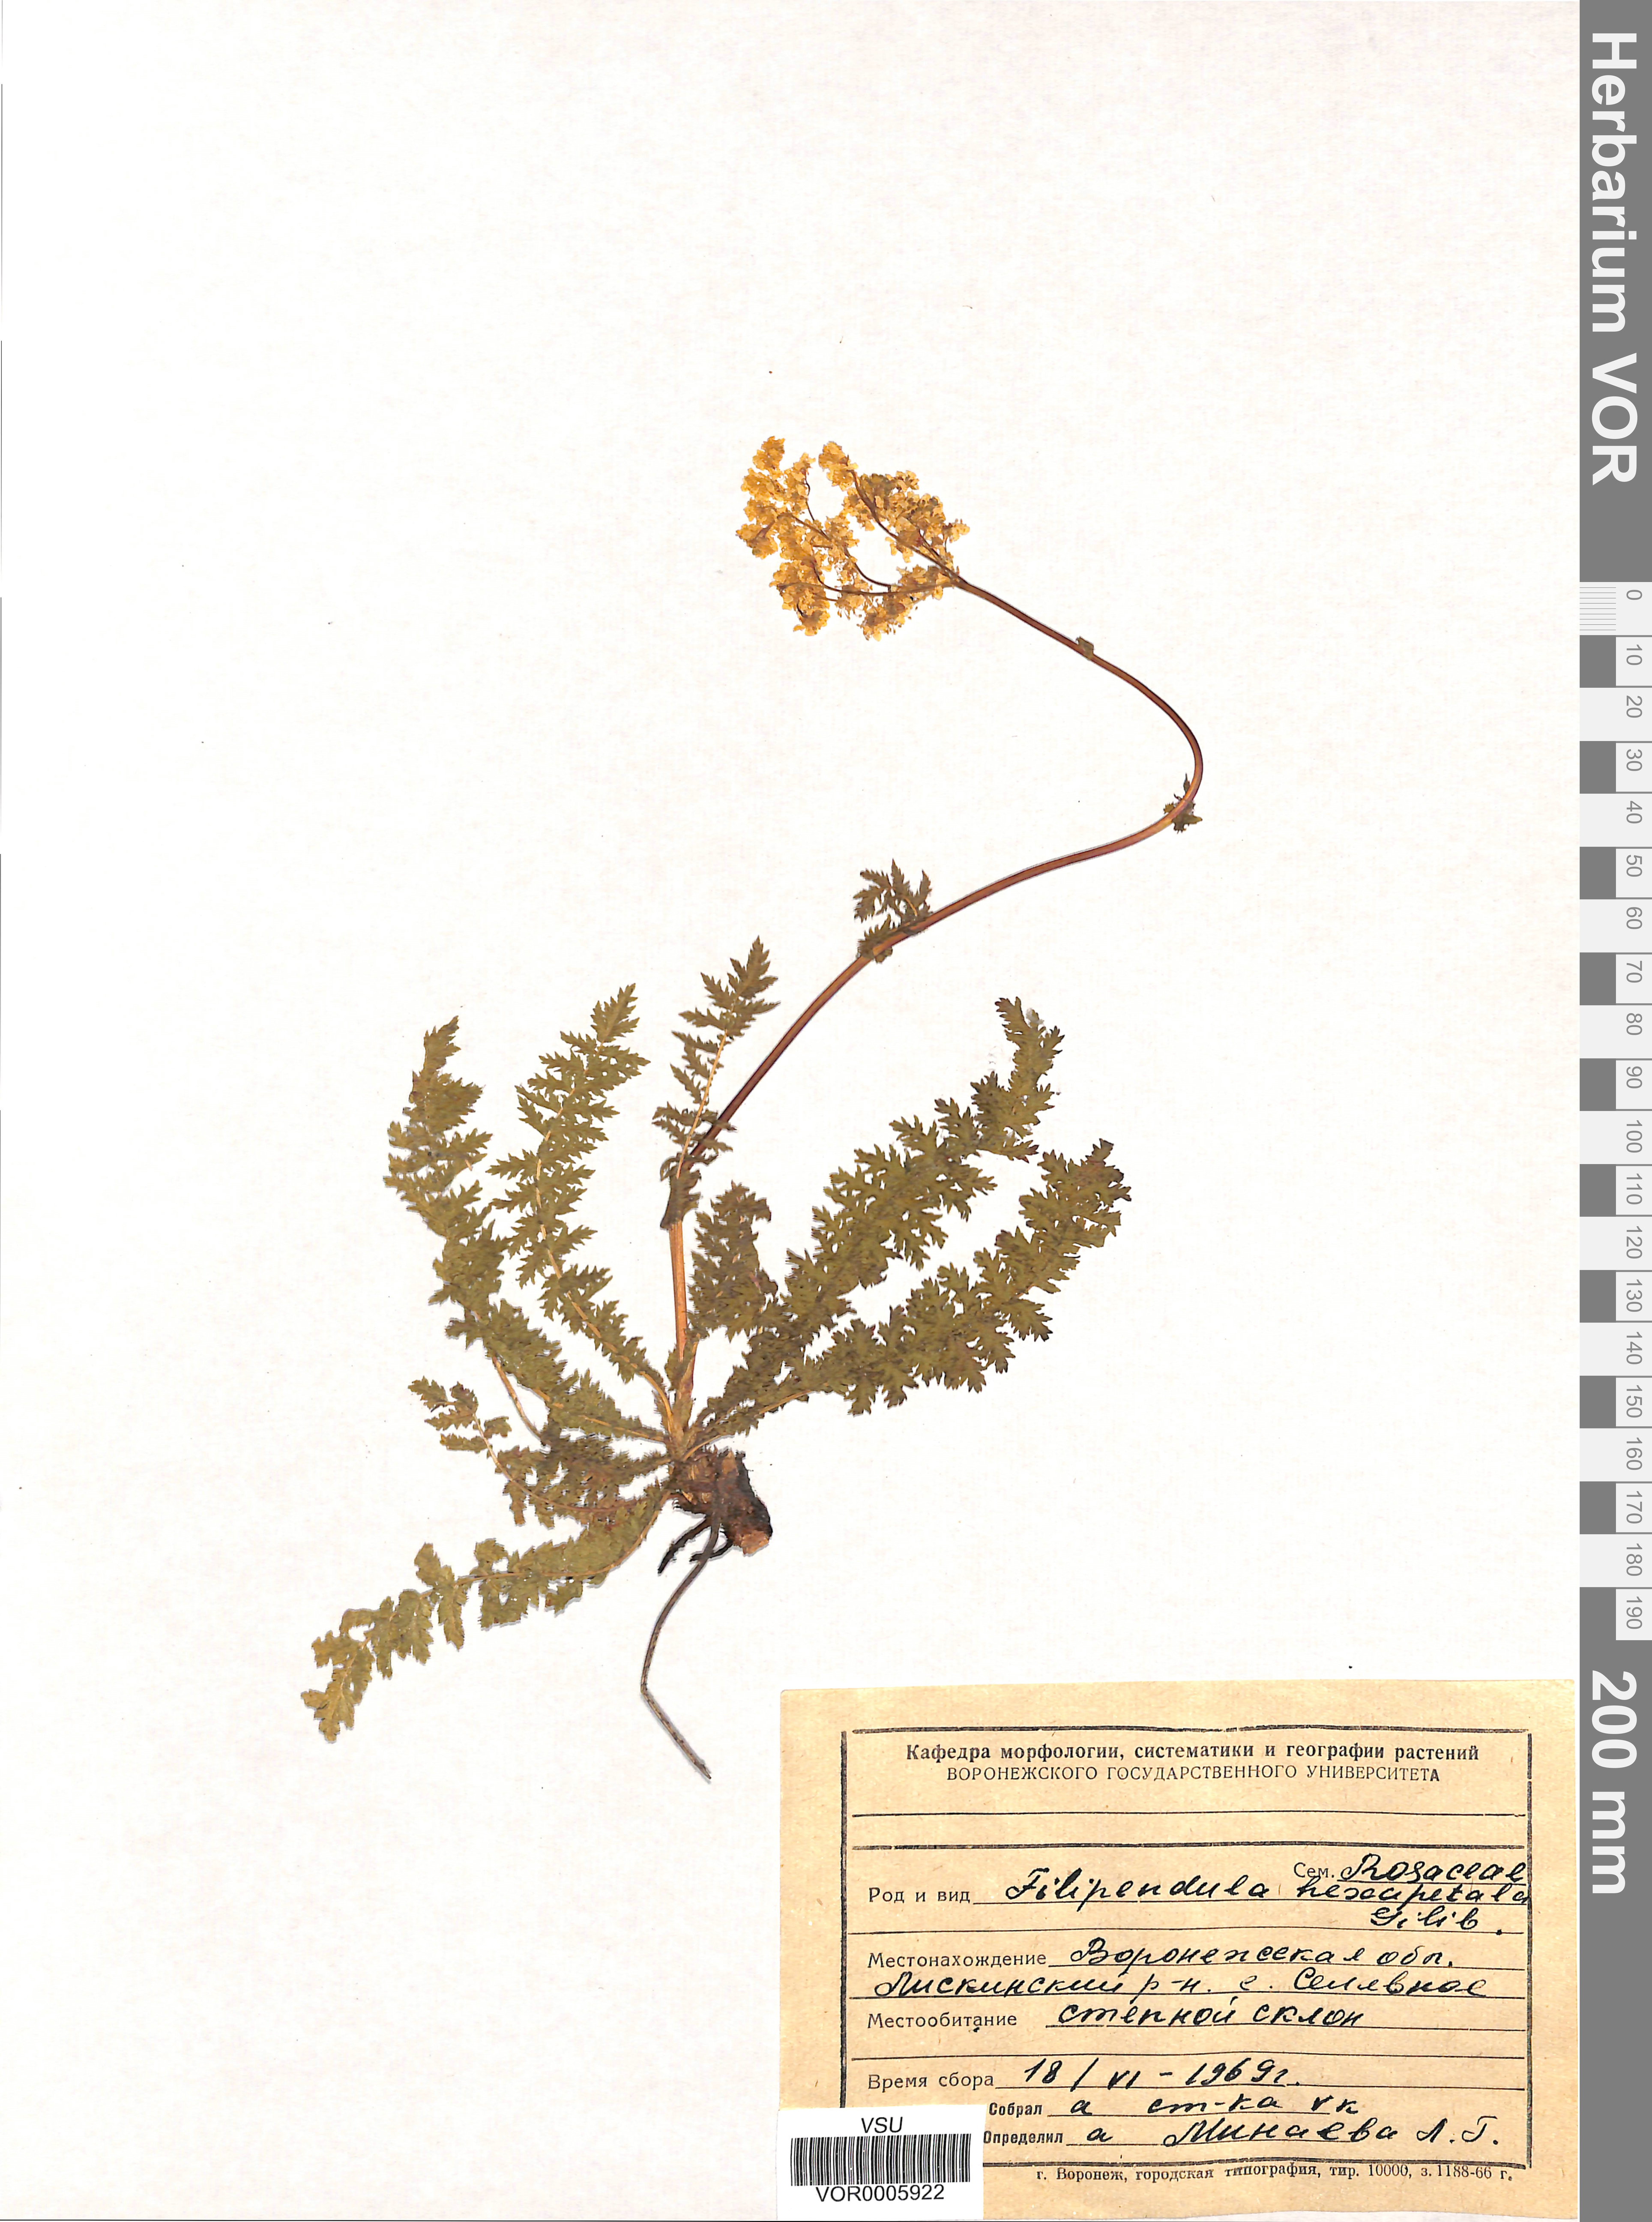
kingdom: Plantae
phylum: Tracheophyta
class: Magnoliopsida
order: Rosales
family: Rosaceae
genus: Filipendula
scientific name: Filipendula vulgaris
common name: Dropwort
